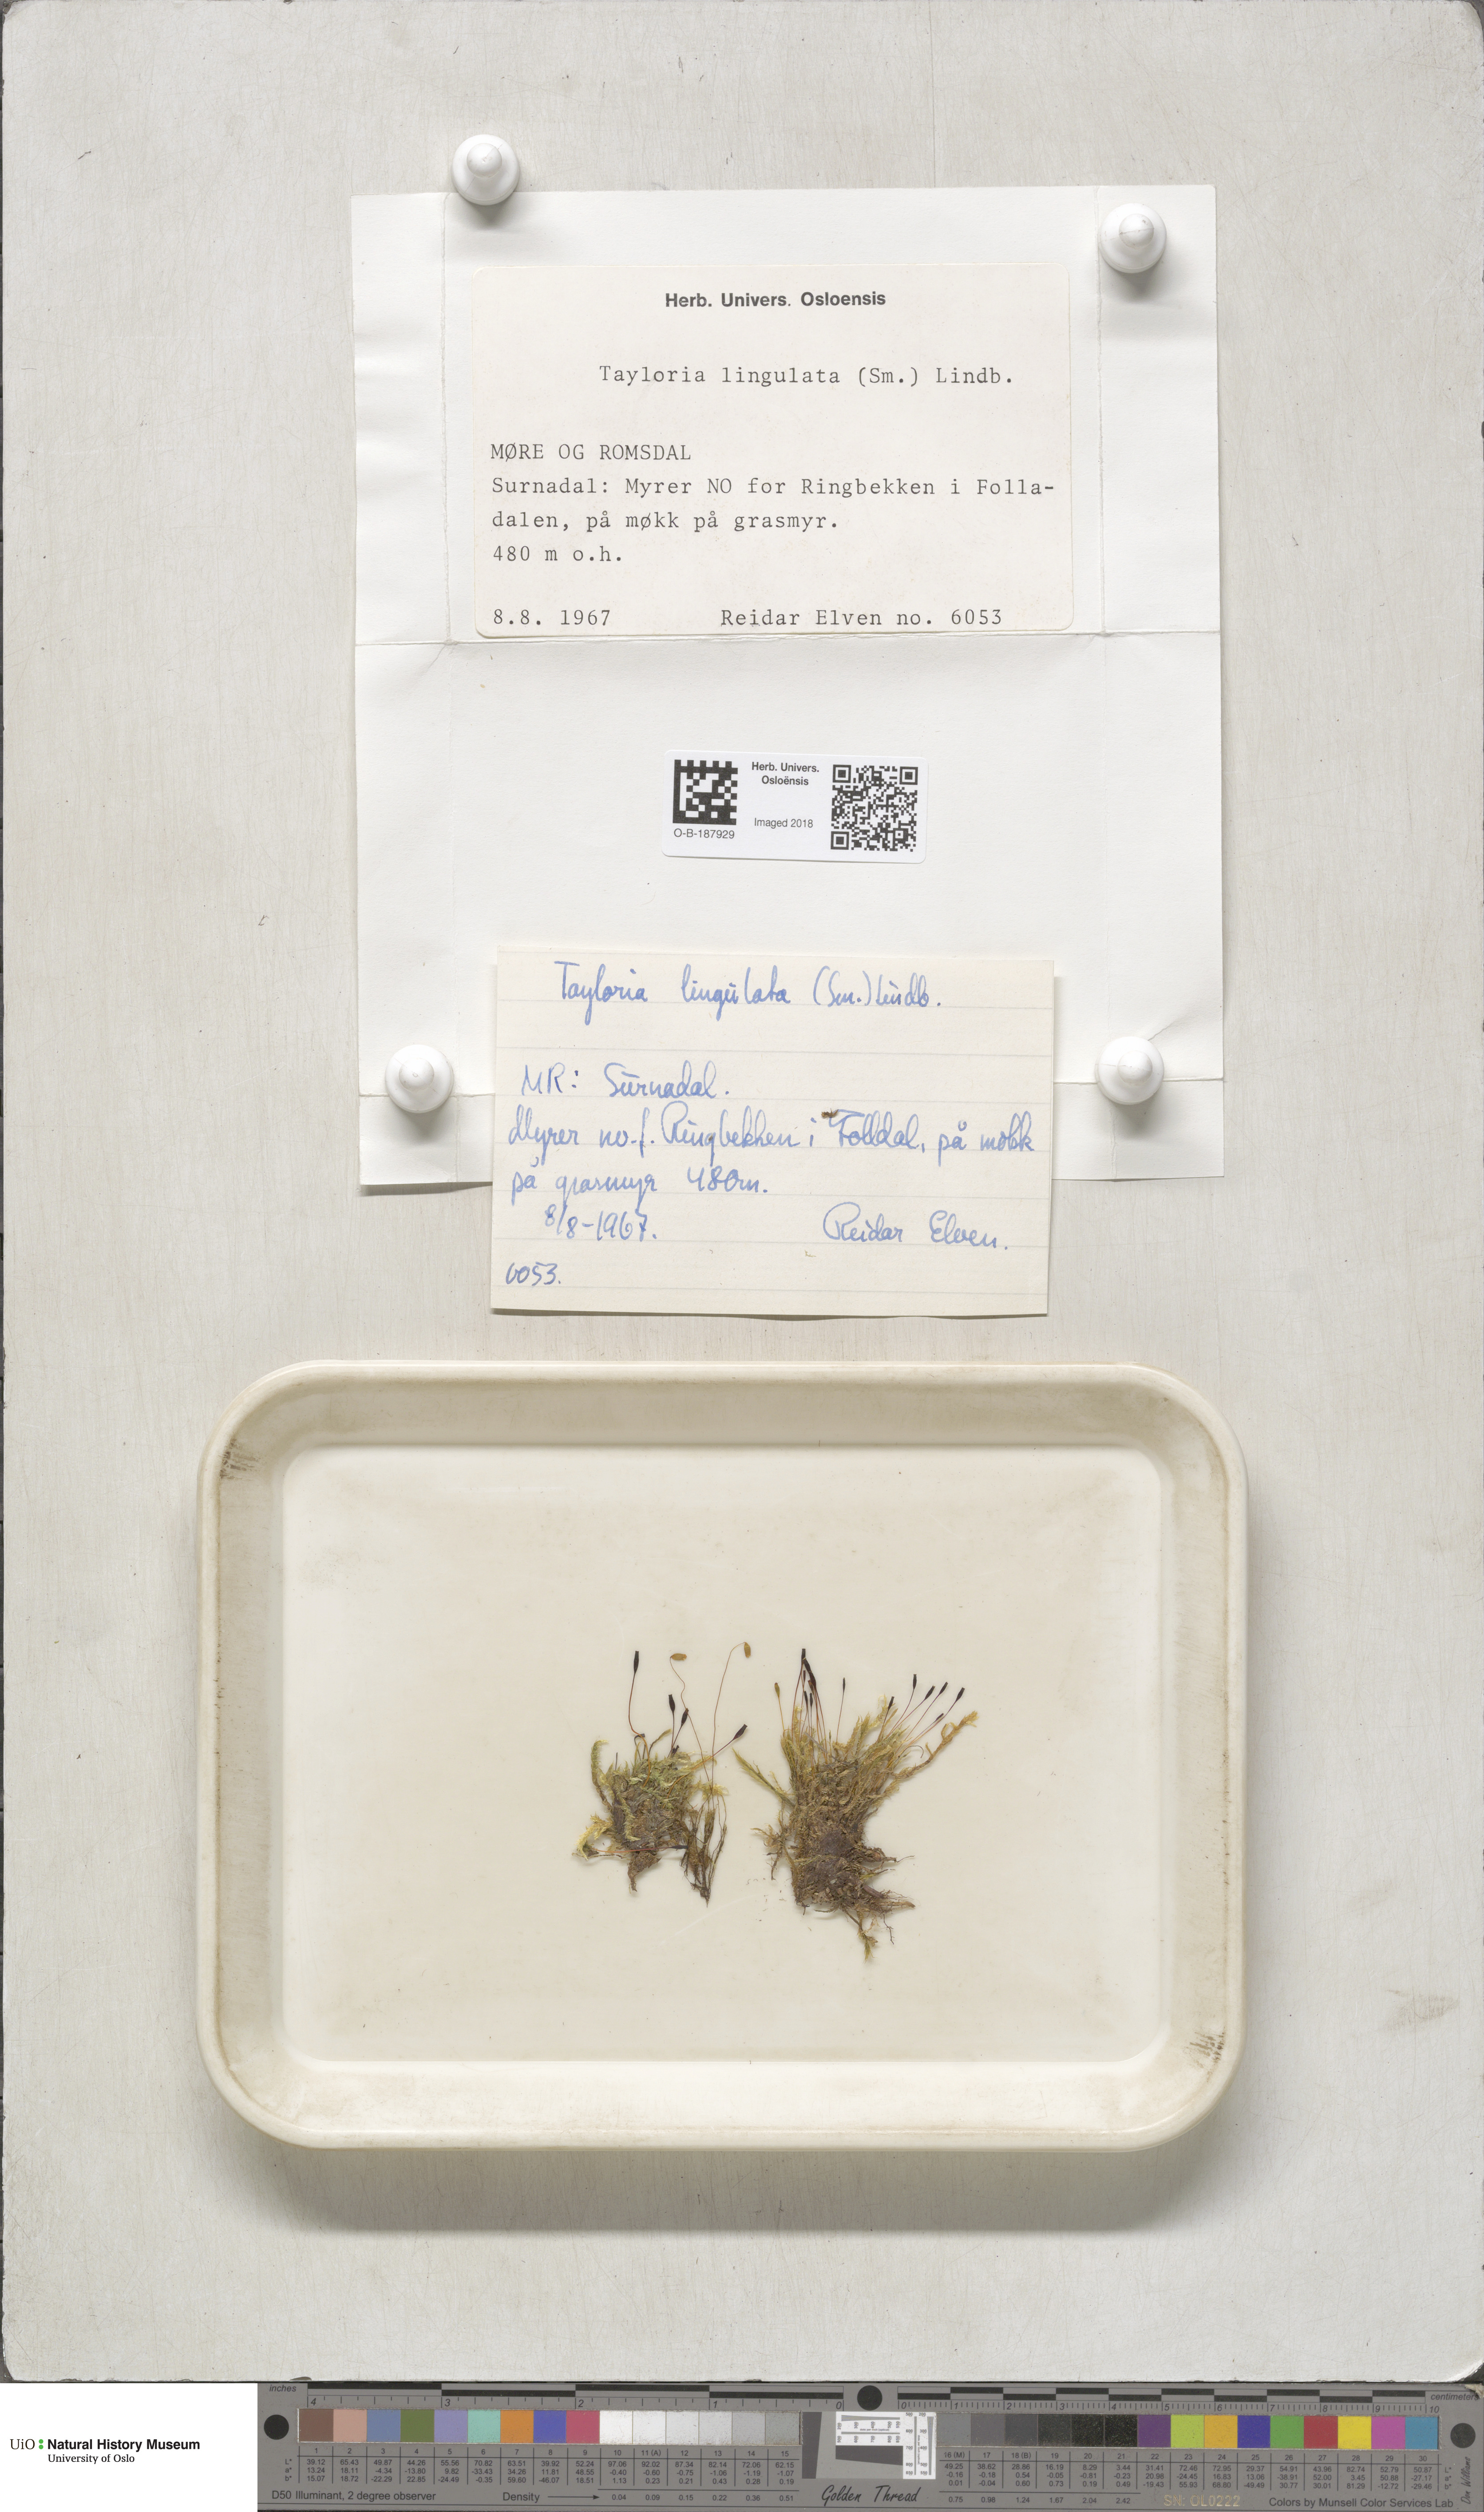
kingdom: Plantae
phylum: Bryophyta
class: Bryopsida
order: Splachnales
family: Splachnaceae
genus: Tayloria
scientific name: Tayloria lingulata
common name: Tongue-leaved trumpet moss
